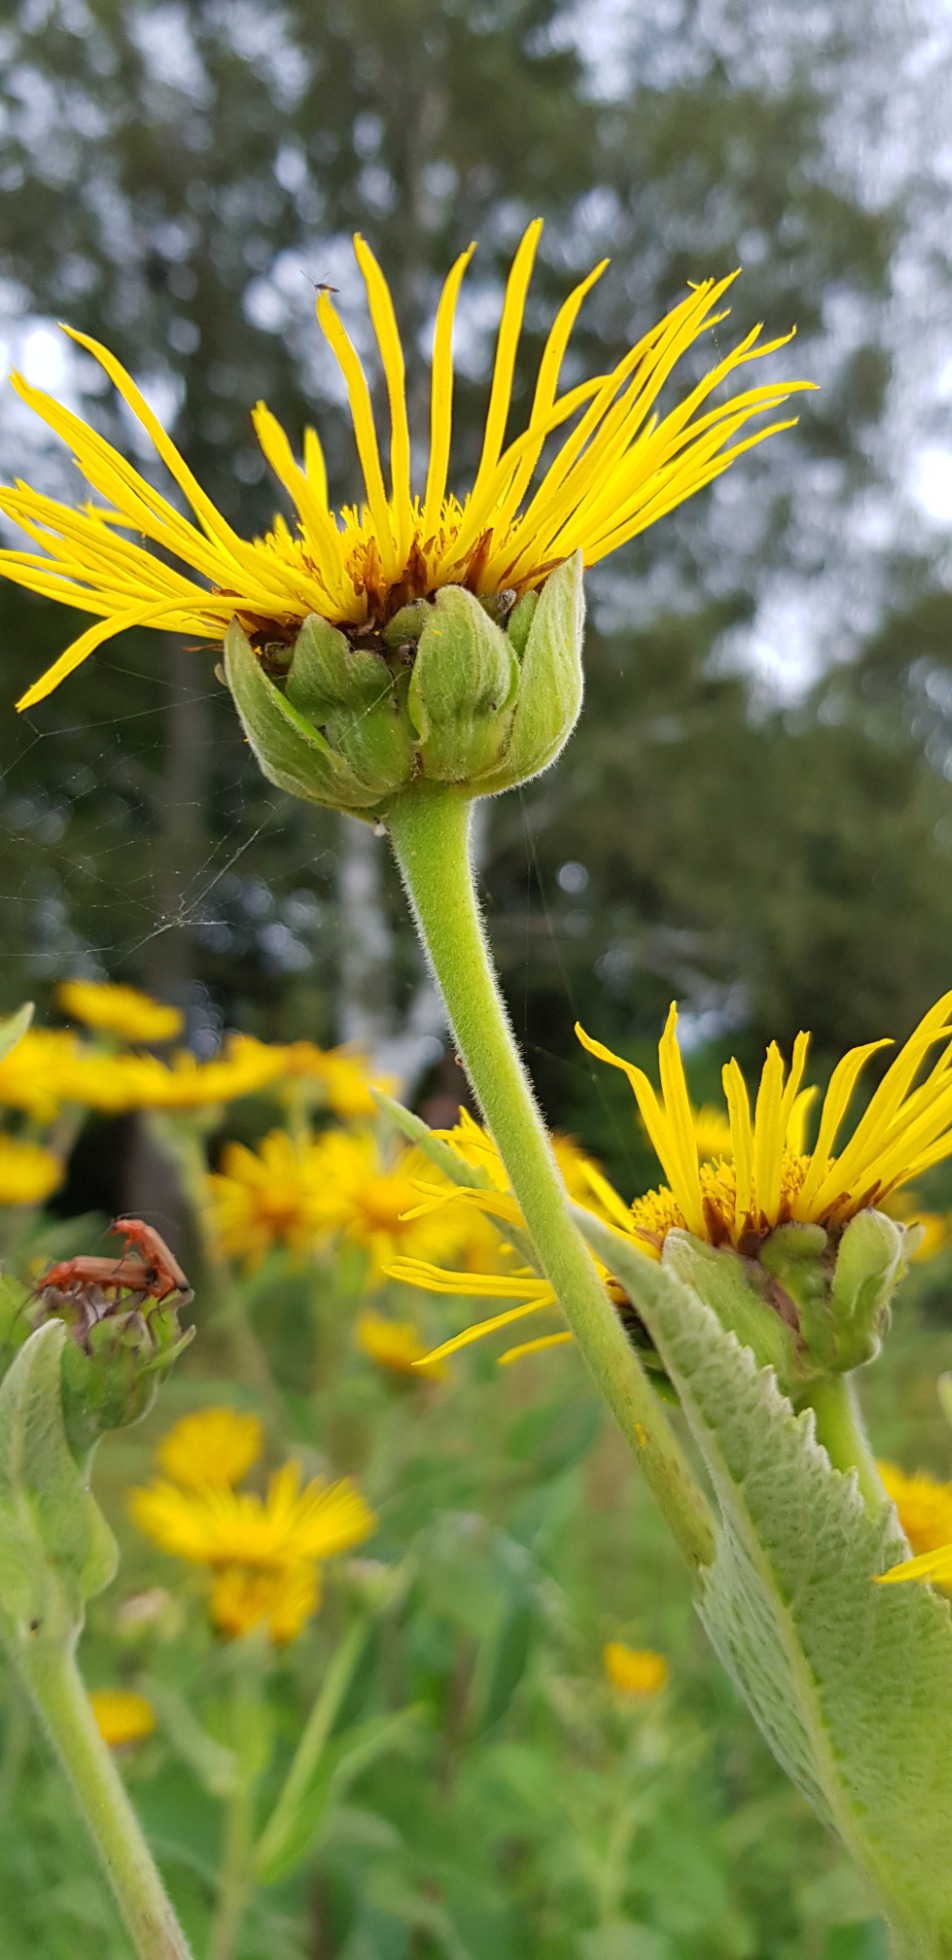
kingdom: Plantae
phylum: Tracheophyta
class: Magnoliopsida
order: Asterales
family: Asteraceae
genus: Inula
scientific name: Inula helenium
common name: Læge-alant
